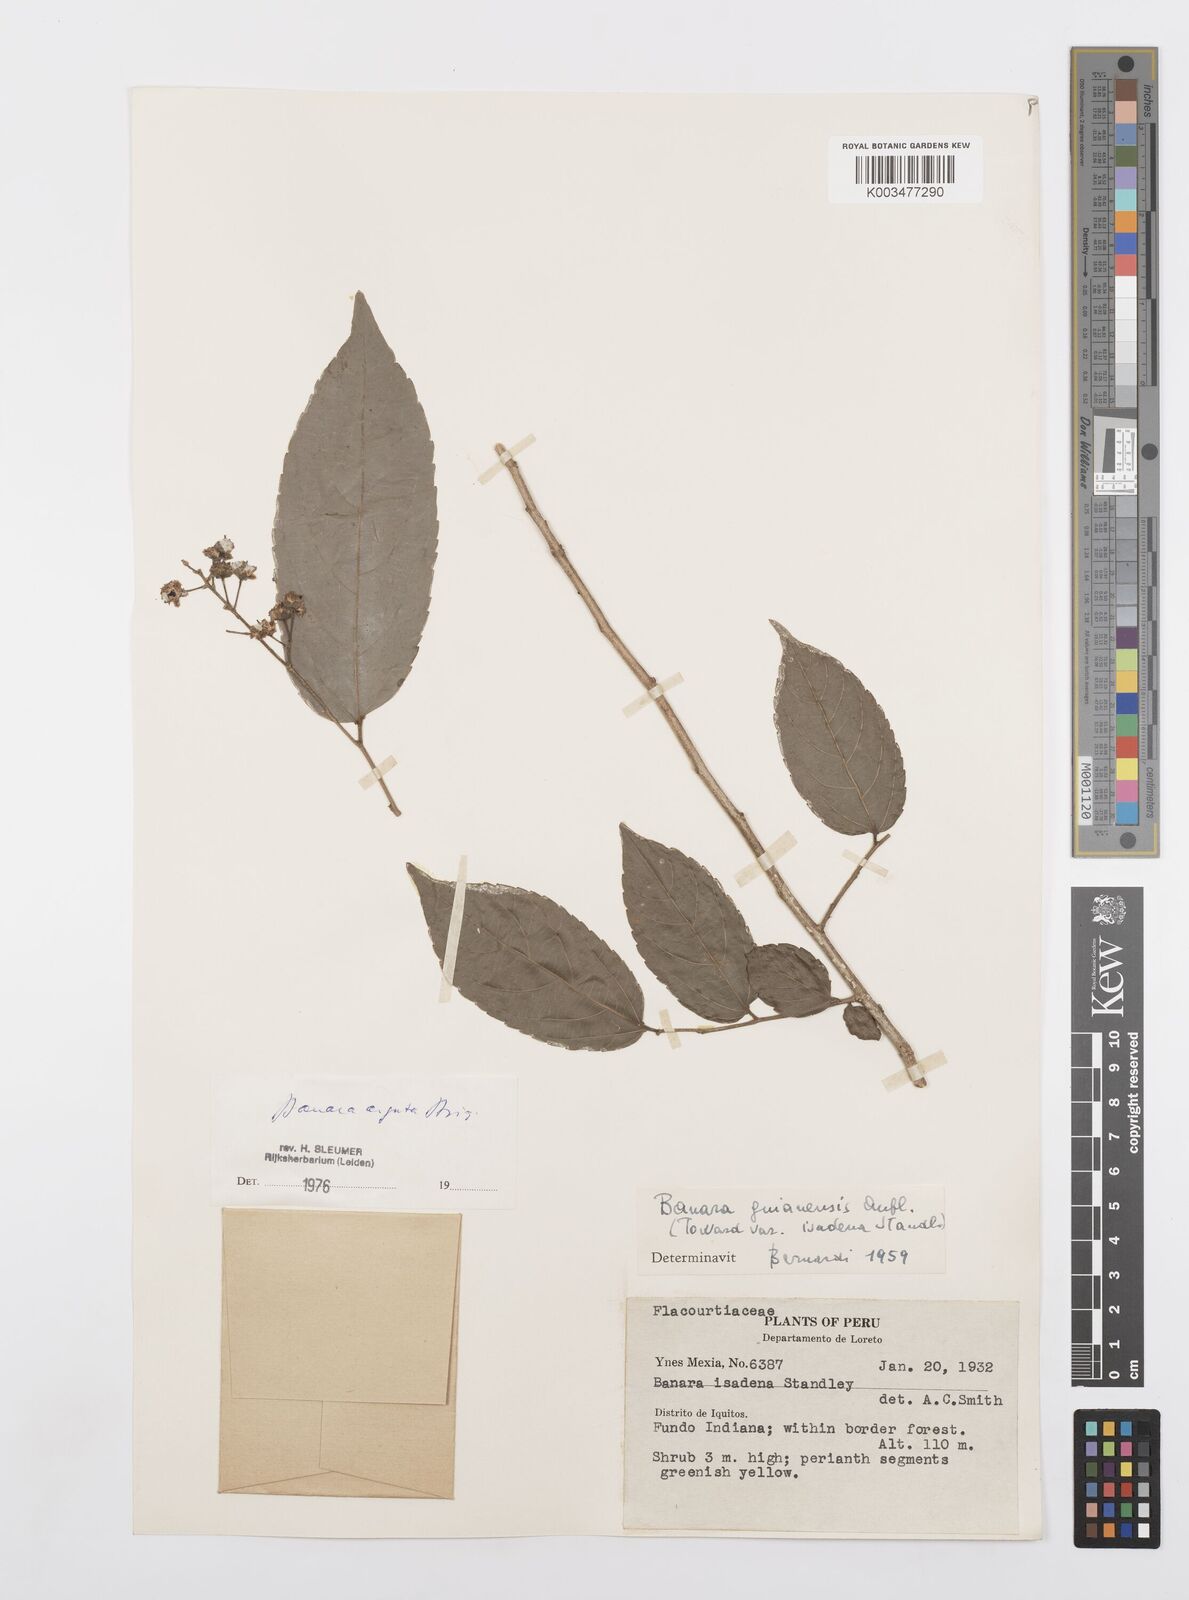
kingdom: Plantae
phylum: Tracheophyta
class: Magnoliopsida
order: Malpighiales
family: Salicaceae
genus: Banara
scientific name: Banara arguta
